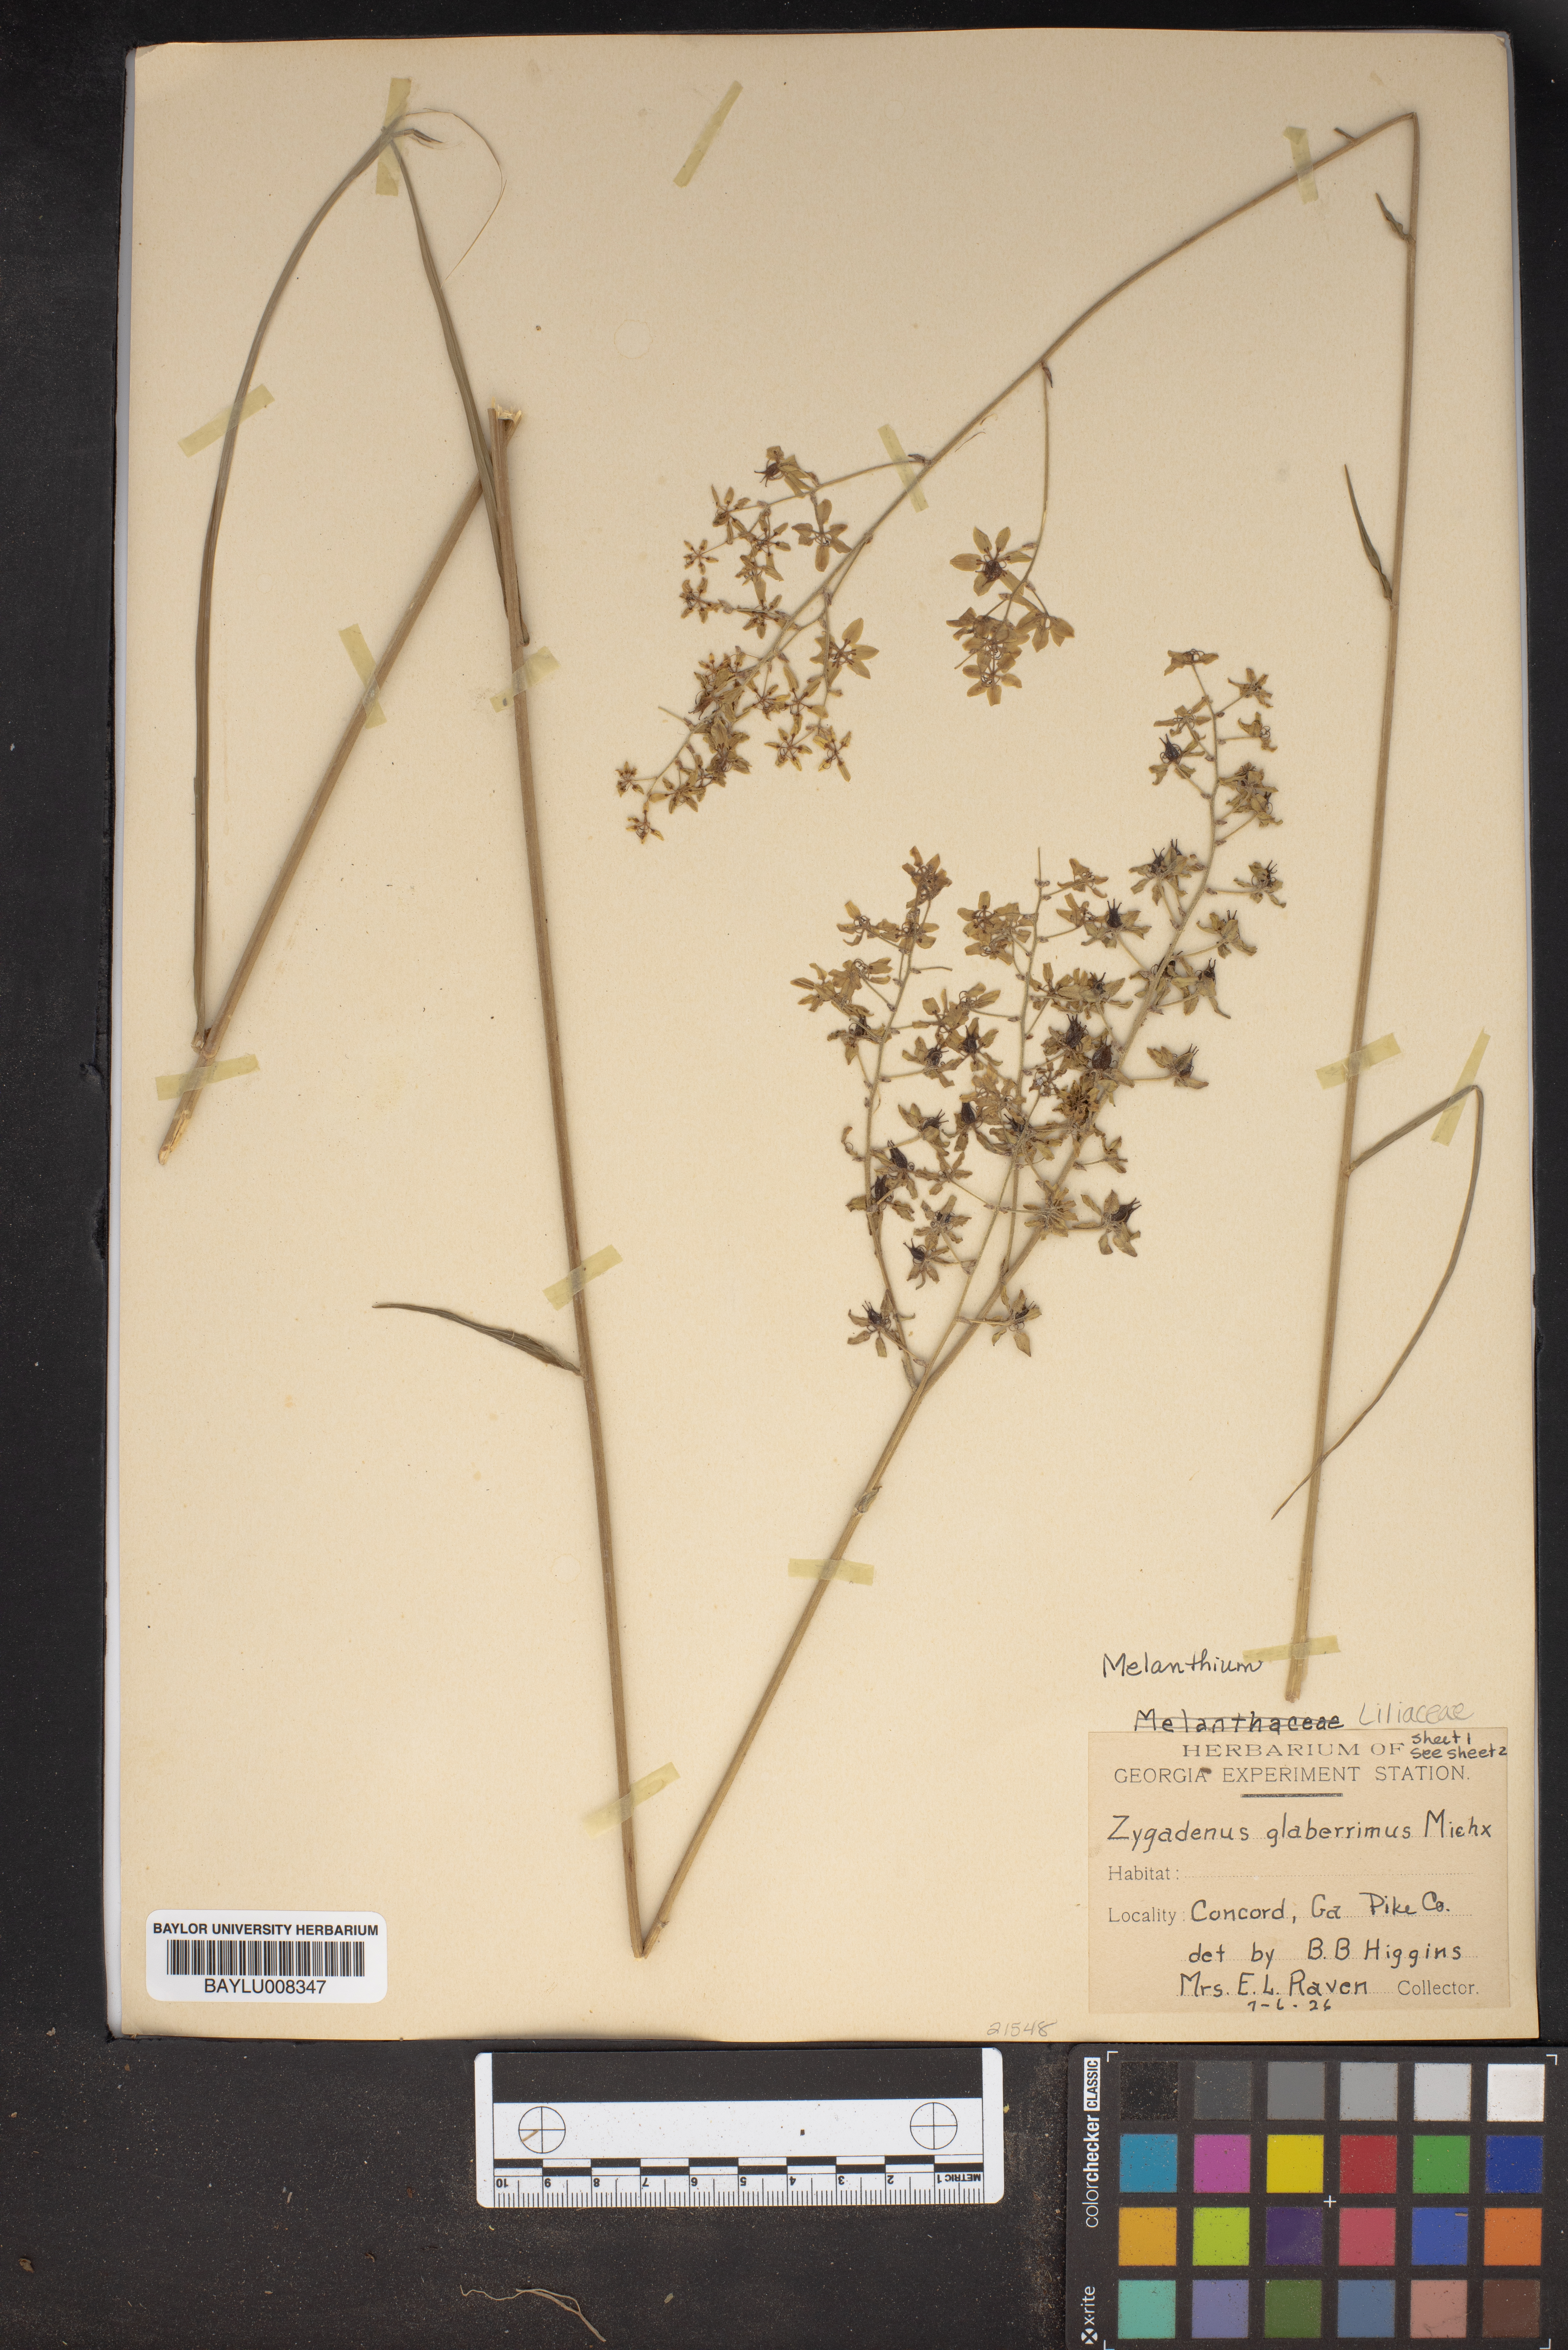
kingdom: Plantae
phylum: Tracheophyta
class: Liliopsida
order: Liliales
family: Melanthiaceae
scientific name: Melanthiaceae
